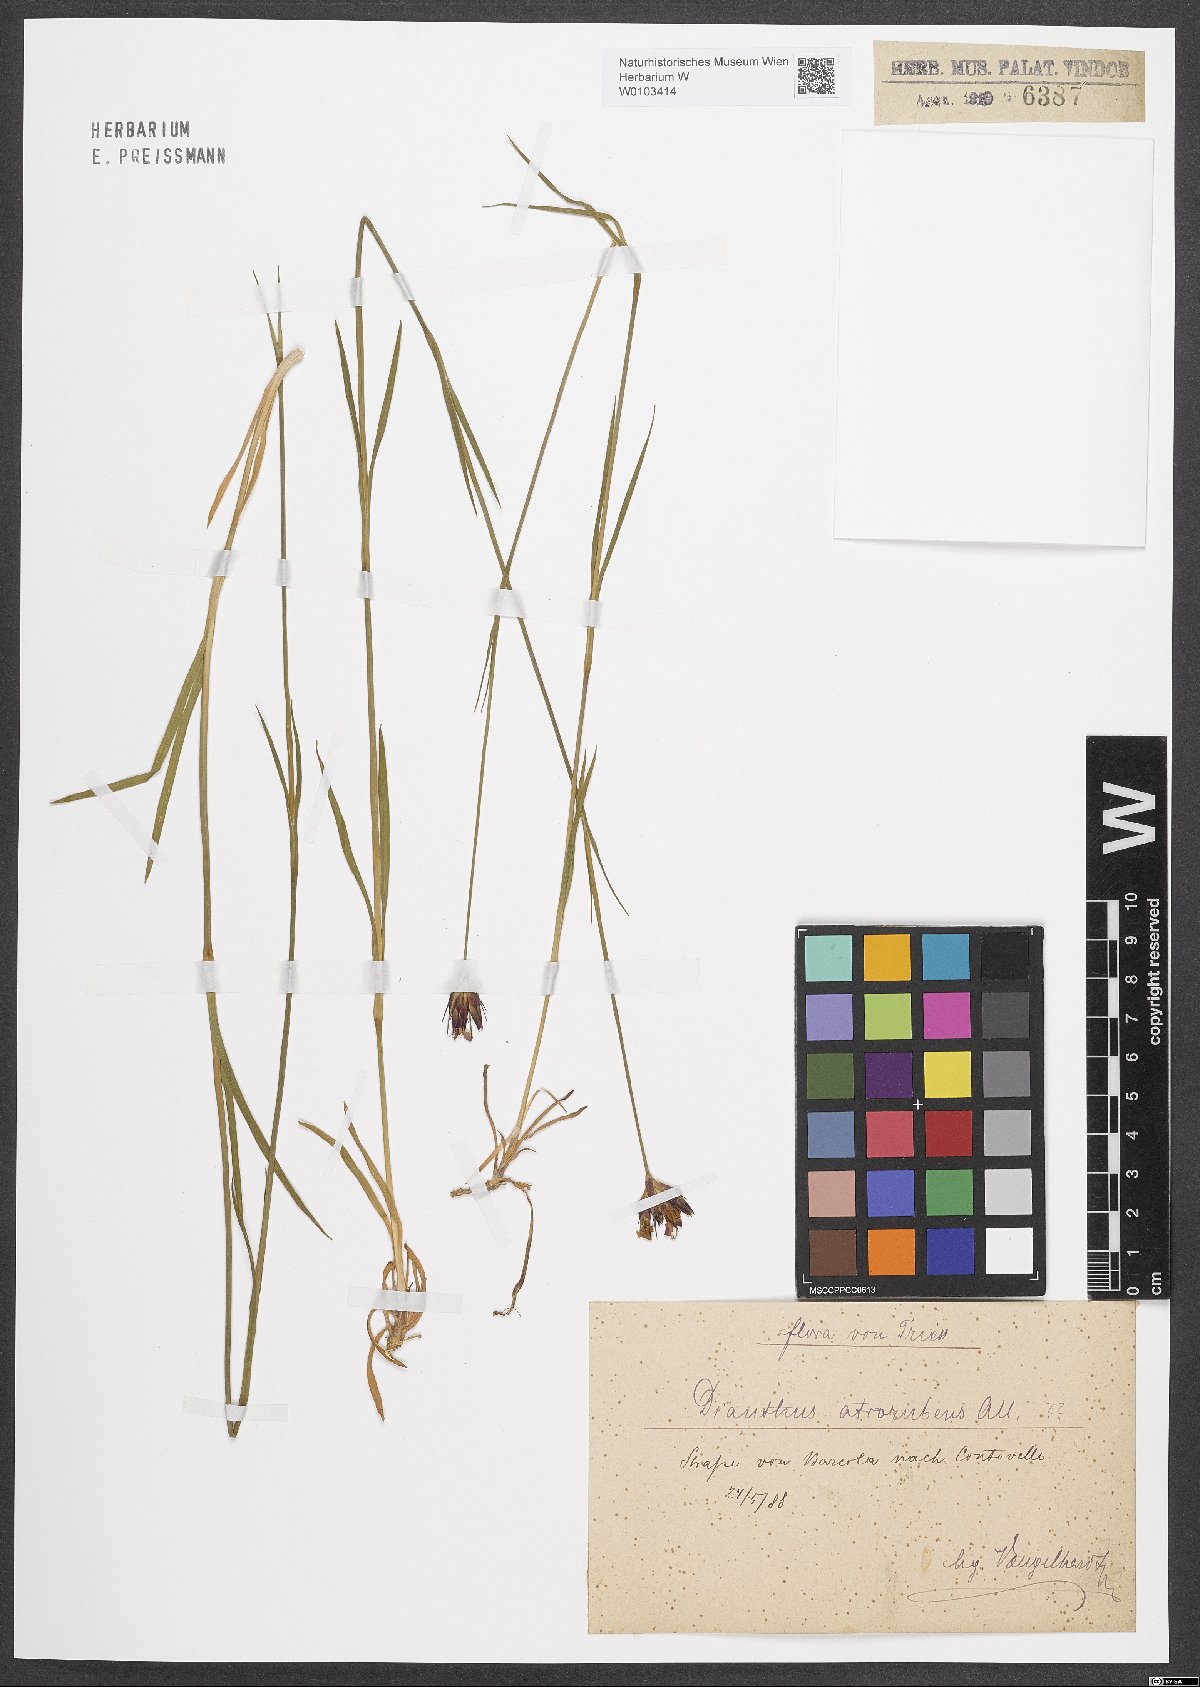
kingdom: Plantae
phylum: Tracheophyta
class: Magnoliopsida
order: Caryophyllales
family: Caryophyllaceae
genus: Dianthus
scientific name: Dianthus carthusianorum
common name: Carthusian pink
